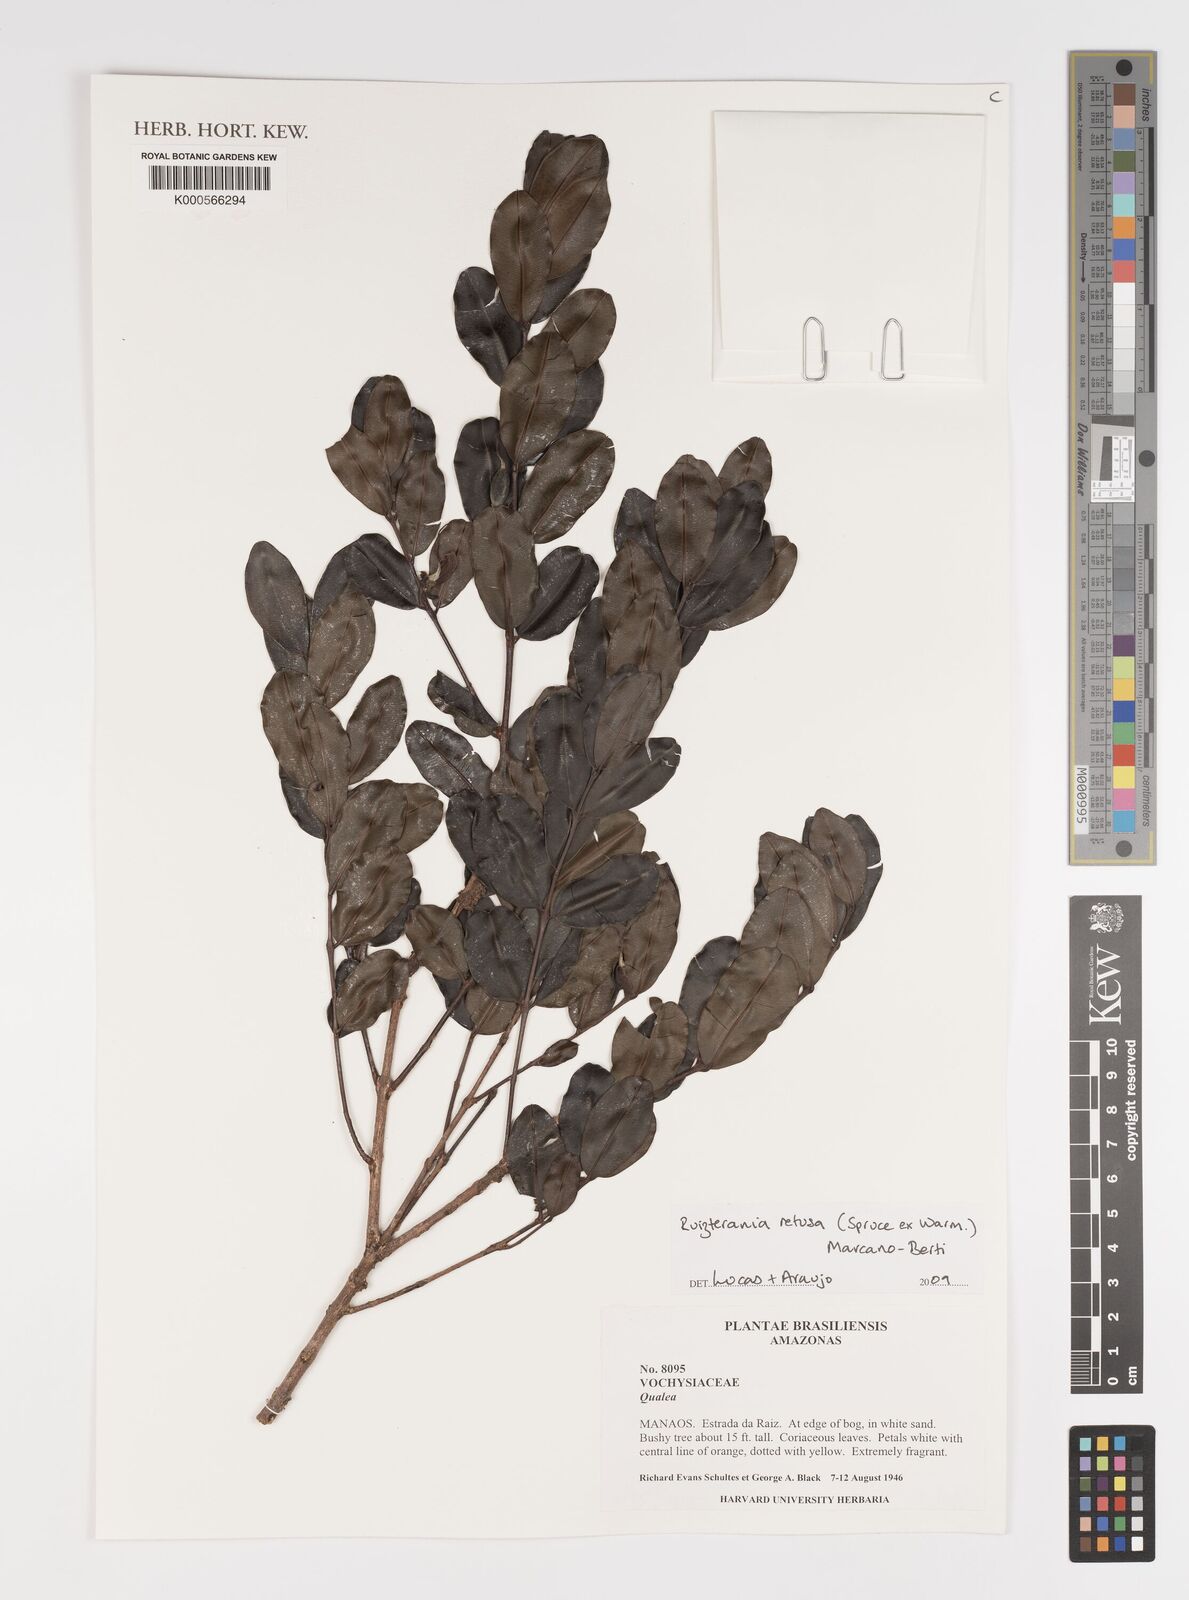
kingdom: Plantae
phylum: Tracheophyta
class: Magnoliopsida
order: Myrtales
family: Vochysiaceae
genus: Ruizterania
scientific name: Ruizterania retusa
